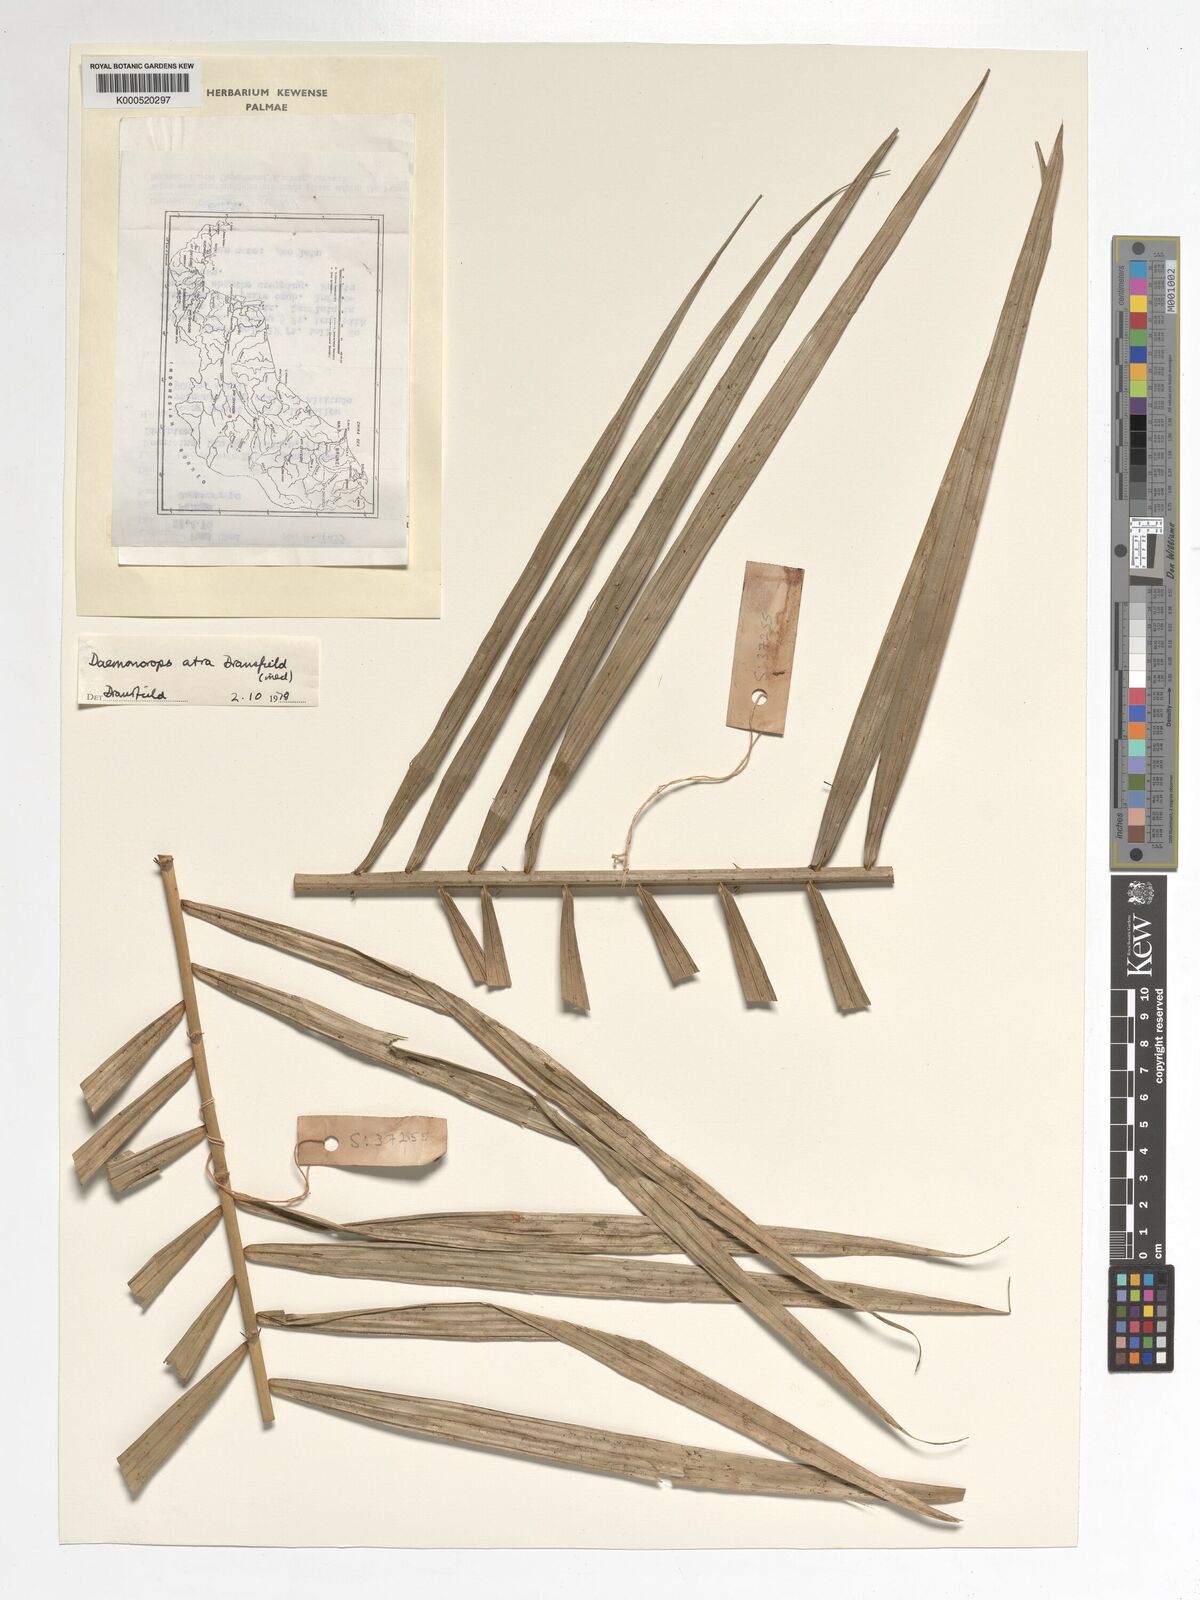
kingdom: Plantae
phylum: Tracheophyta
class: Liliopsida
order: Arecales
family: Arecaceae
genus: Calamus
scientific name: Calamus ater
